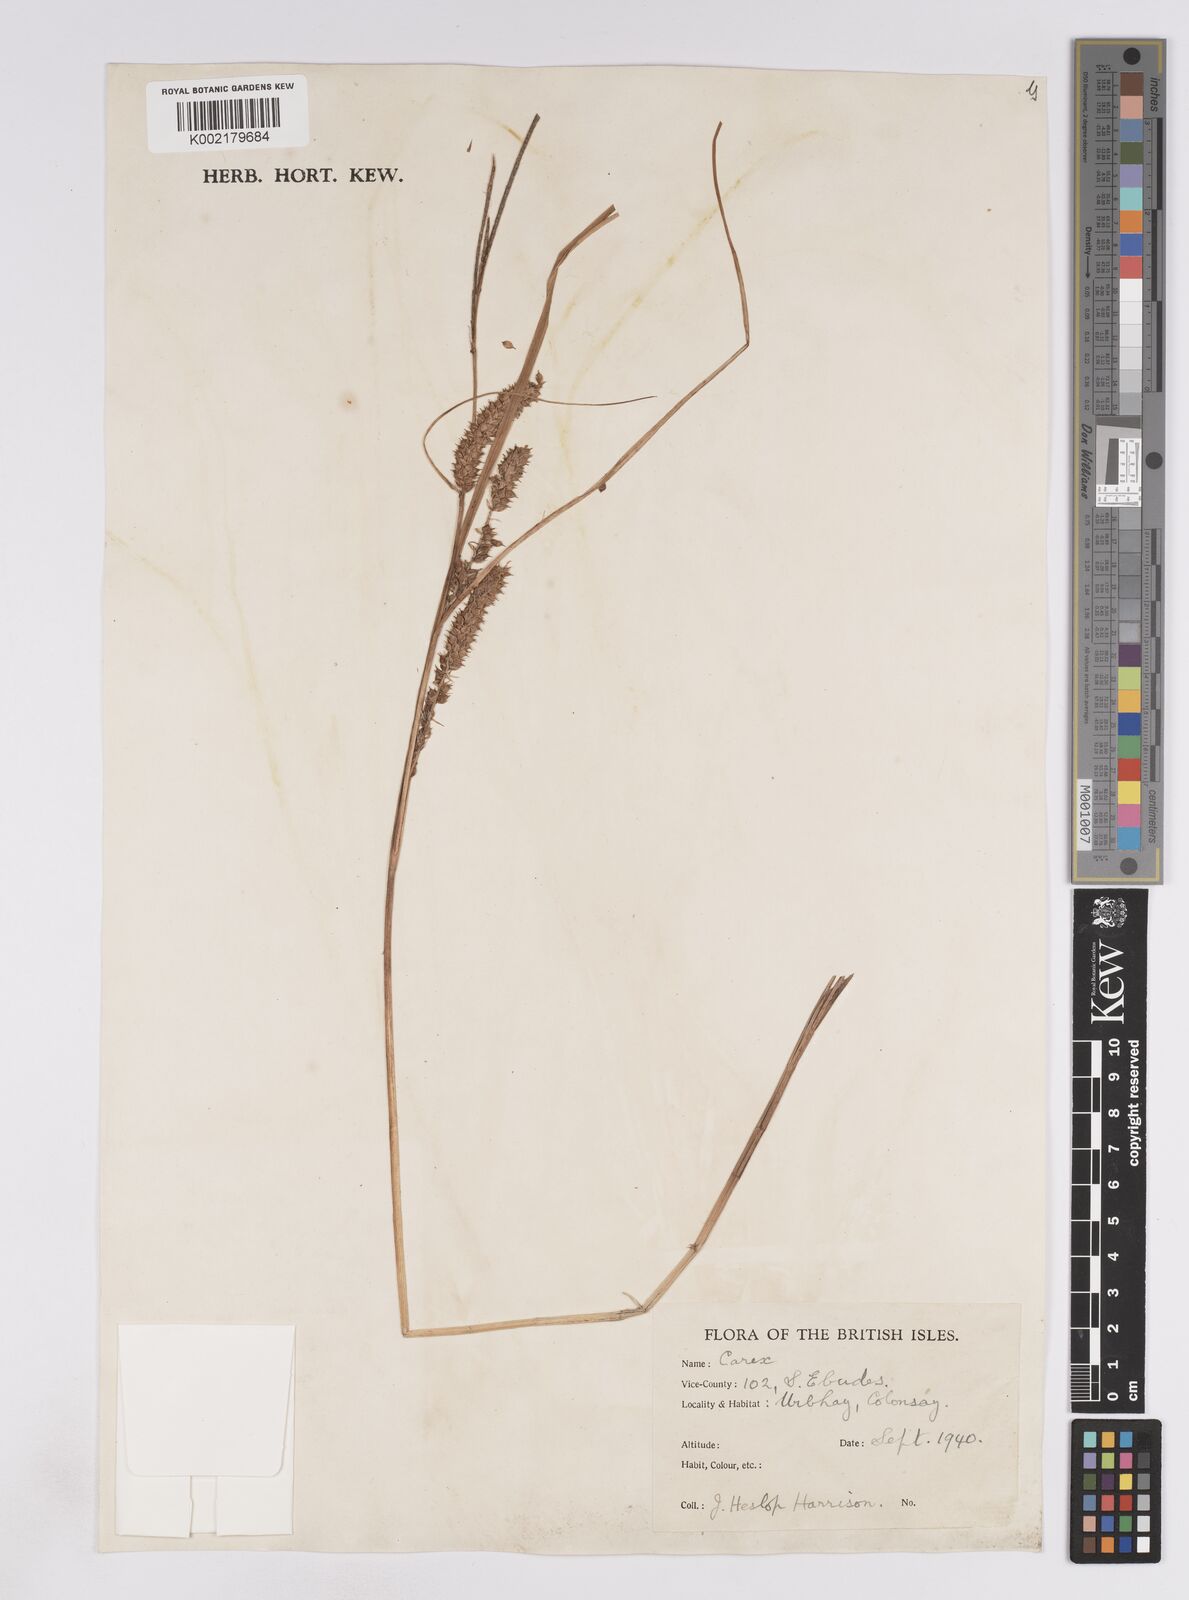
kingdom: Plantae
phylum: Tracheophyta
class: Liliopsida
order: Poales
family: Cyperaceae
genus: Carex
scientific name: Carex rostrata
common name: Bottle sedge
